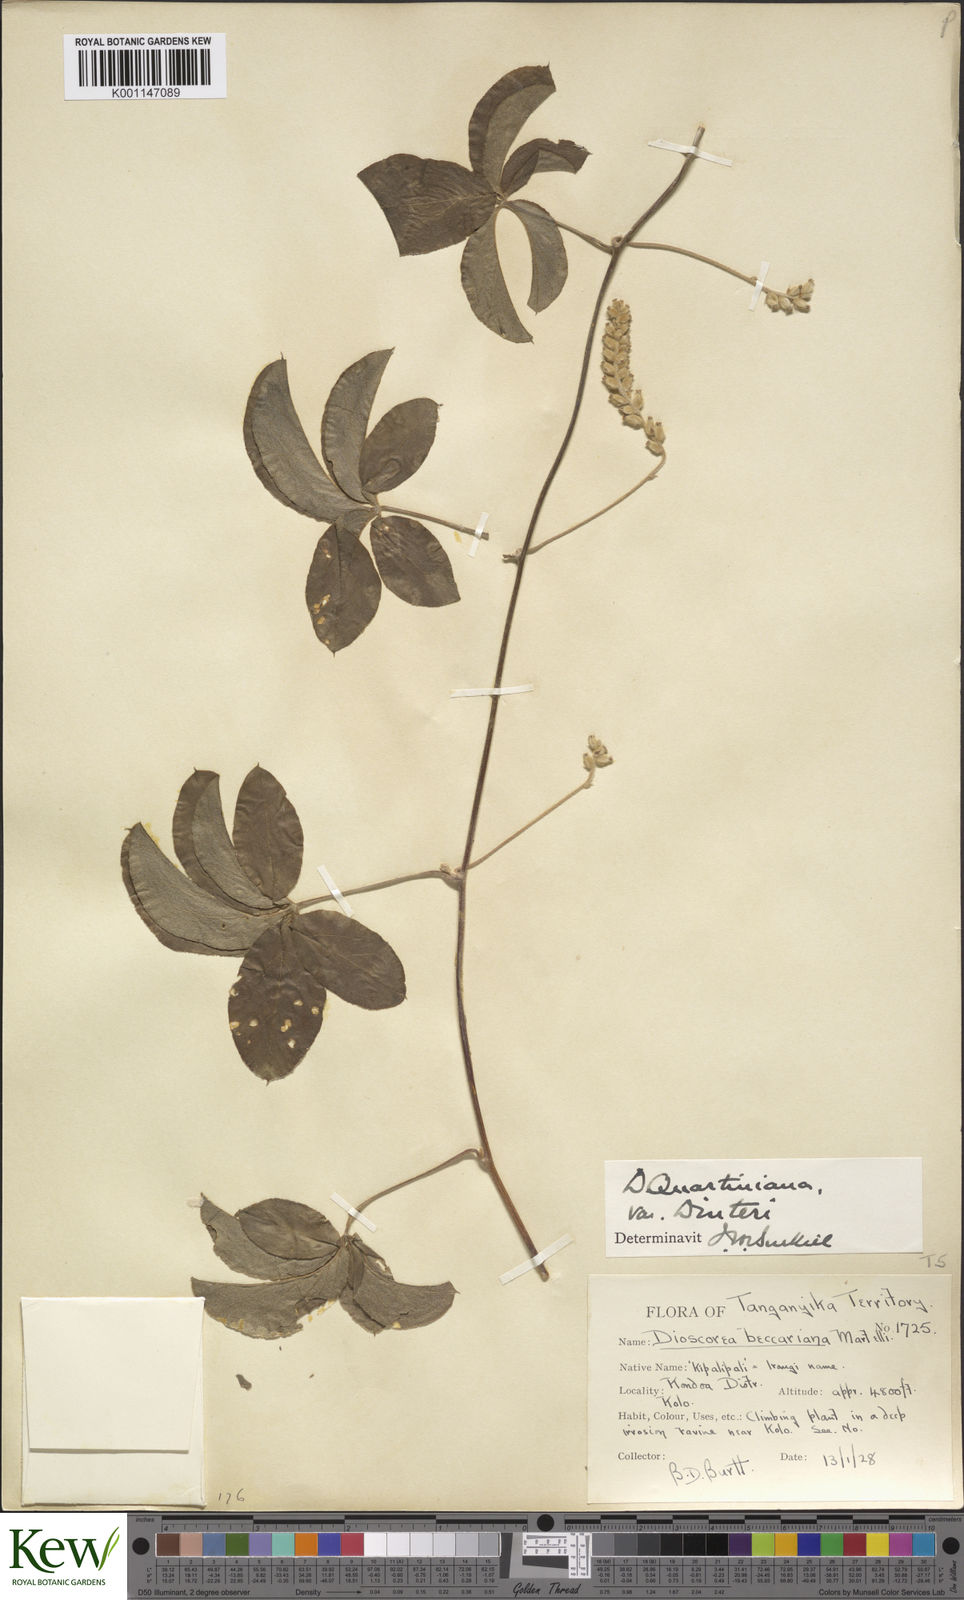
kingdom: Plantae
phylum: Tracheophyta
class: Liliopsida
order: Dioscoreales
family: Dioscoreaceae
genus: Dioscorea
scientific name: Dioscorea quartiniana
